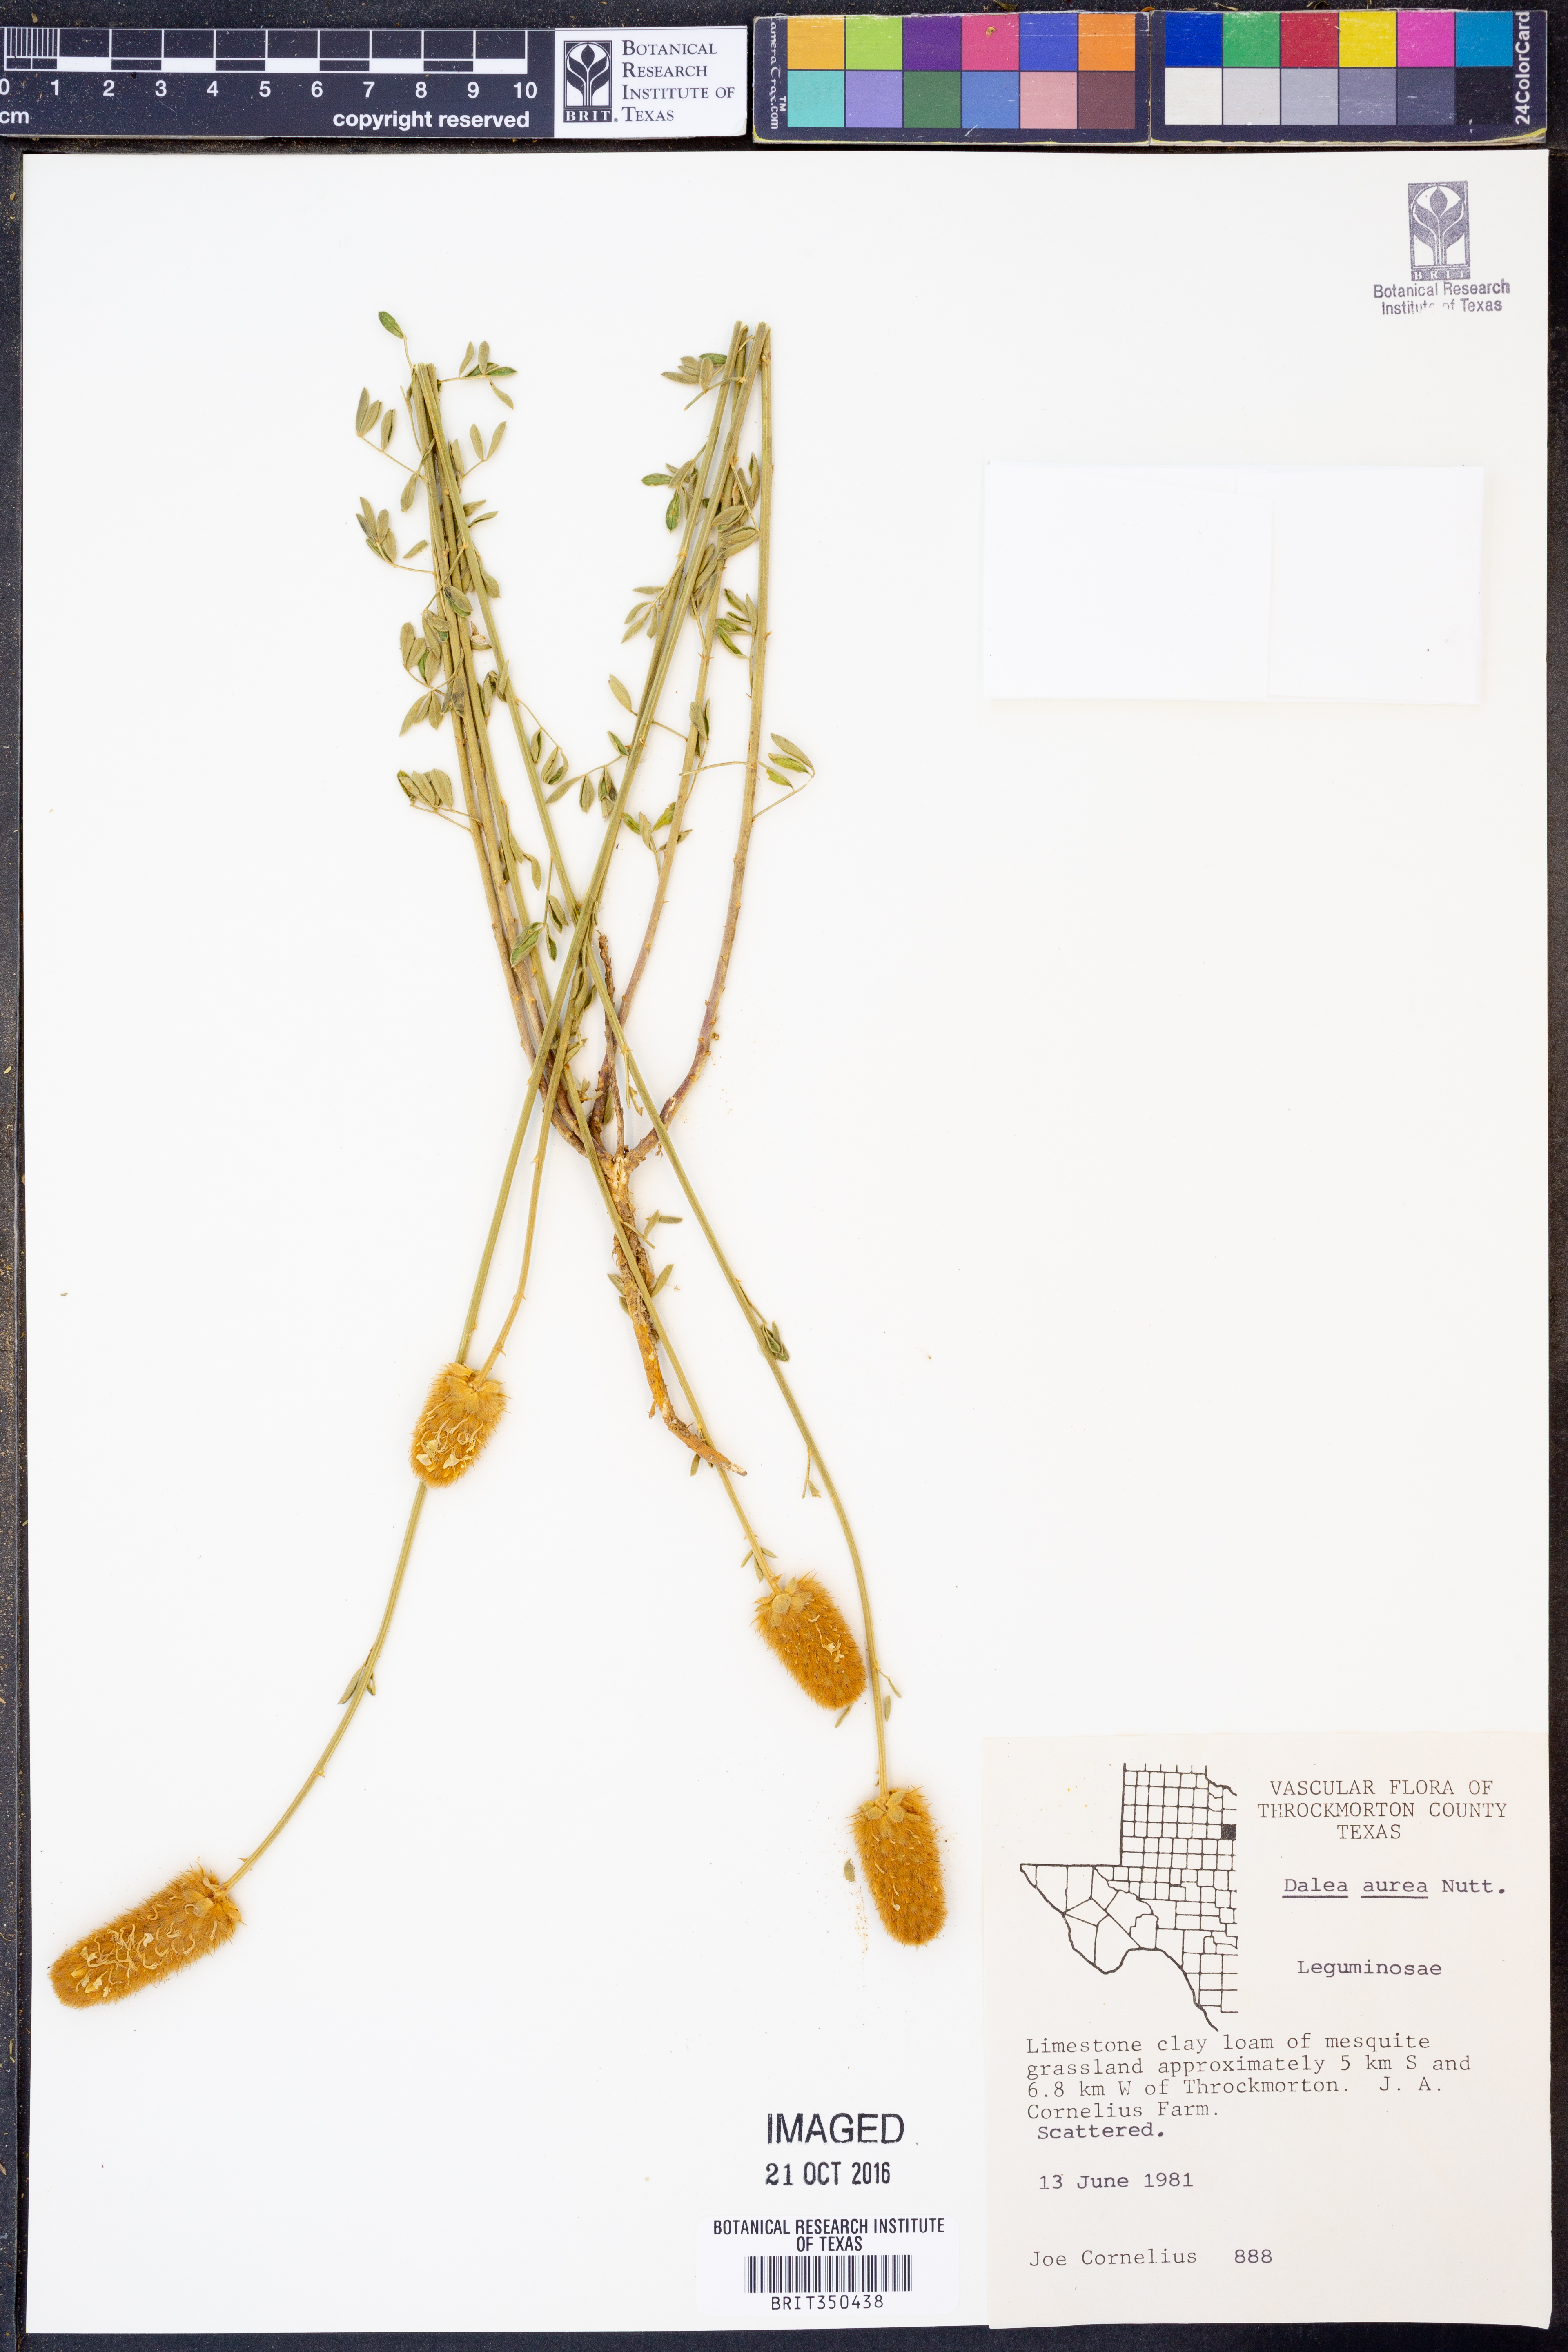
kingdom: Plantae
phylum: Tracheophyta
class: Magnoliopsida
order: Fabales
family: Fabaceae
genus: Dalea
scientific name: Dalea aurea
